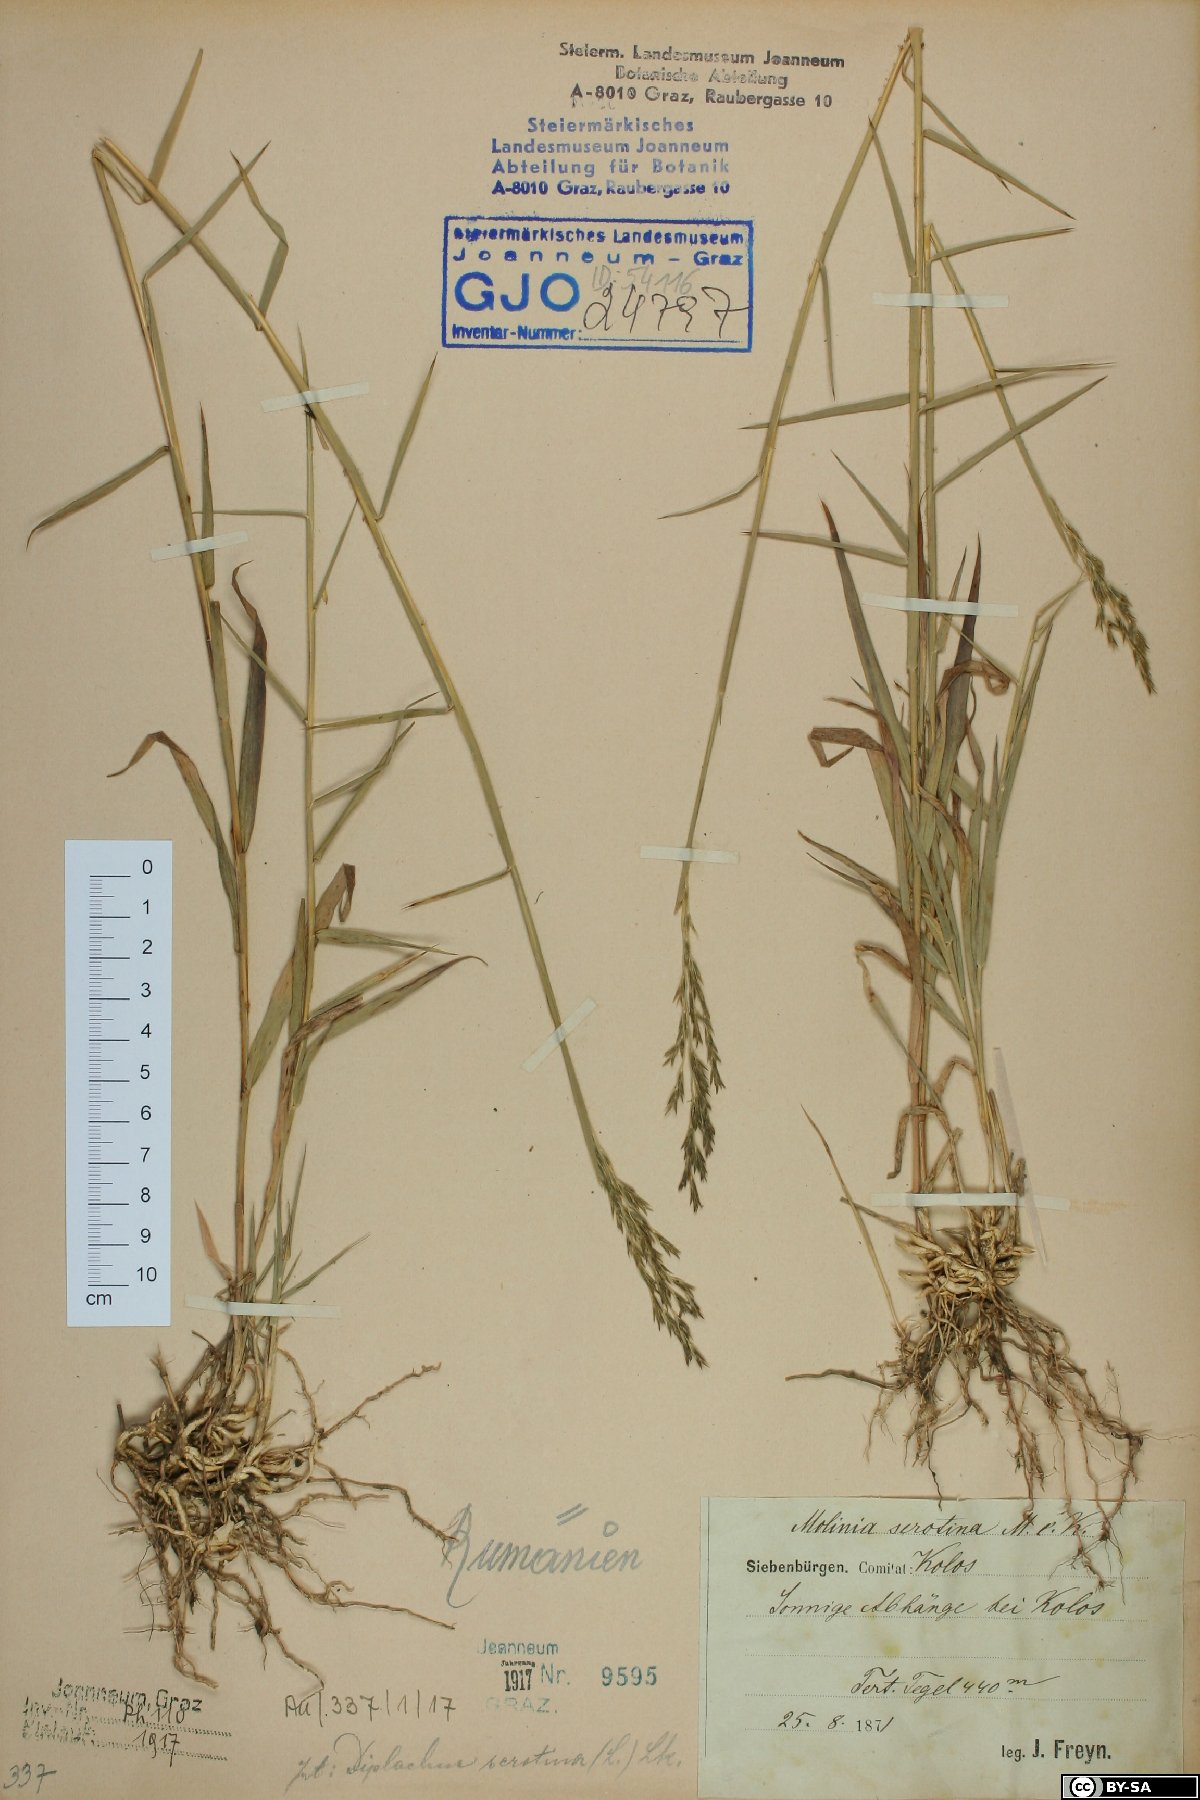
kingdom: Plantae
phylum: Tracheophyta
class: Liliopsida
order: Poales
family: Poaceae
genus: Cleistogenes
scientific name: Cleistogenes serotina
